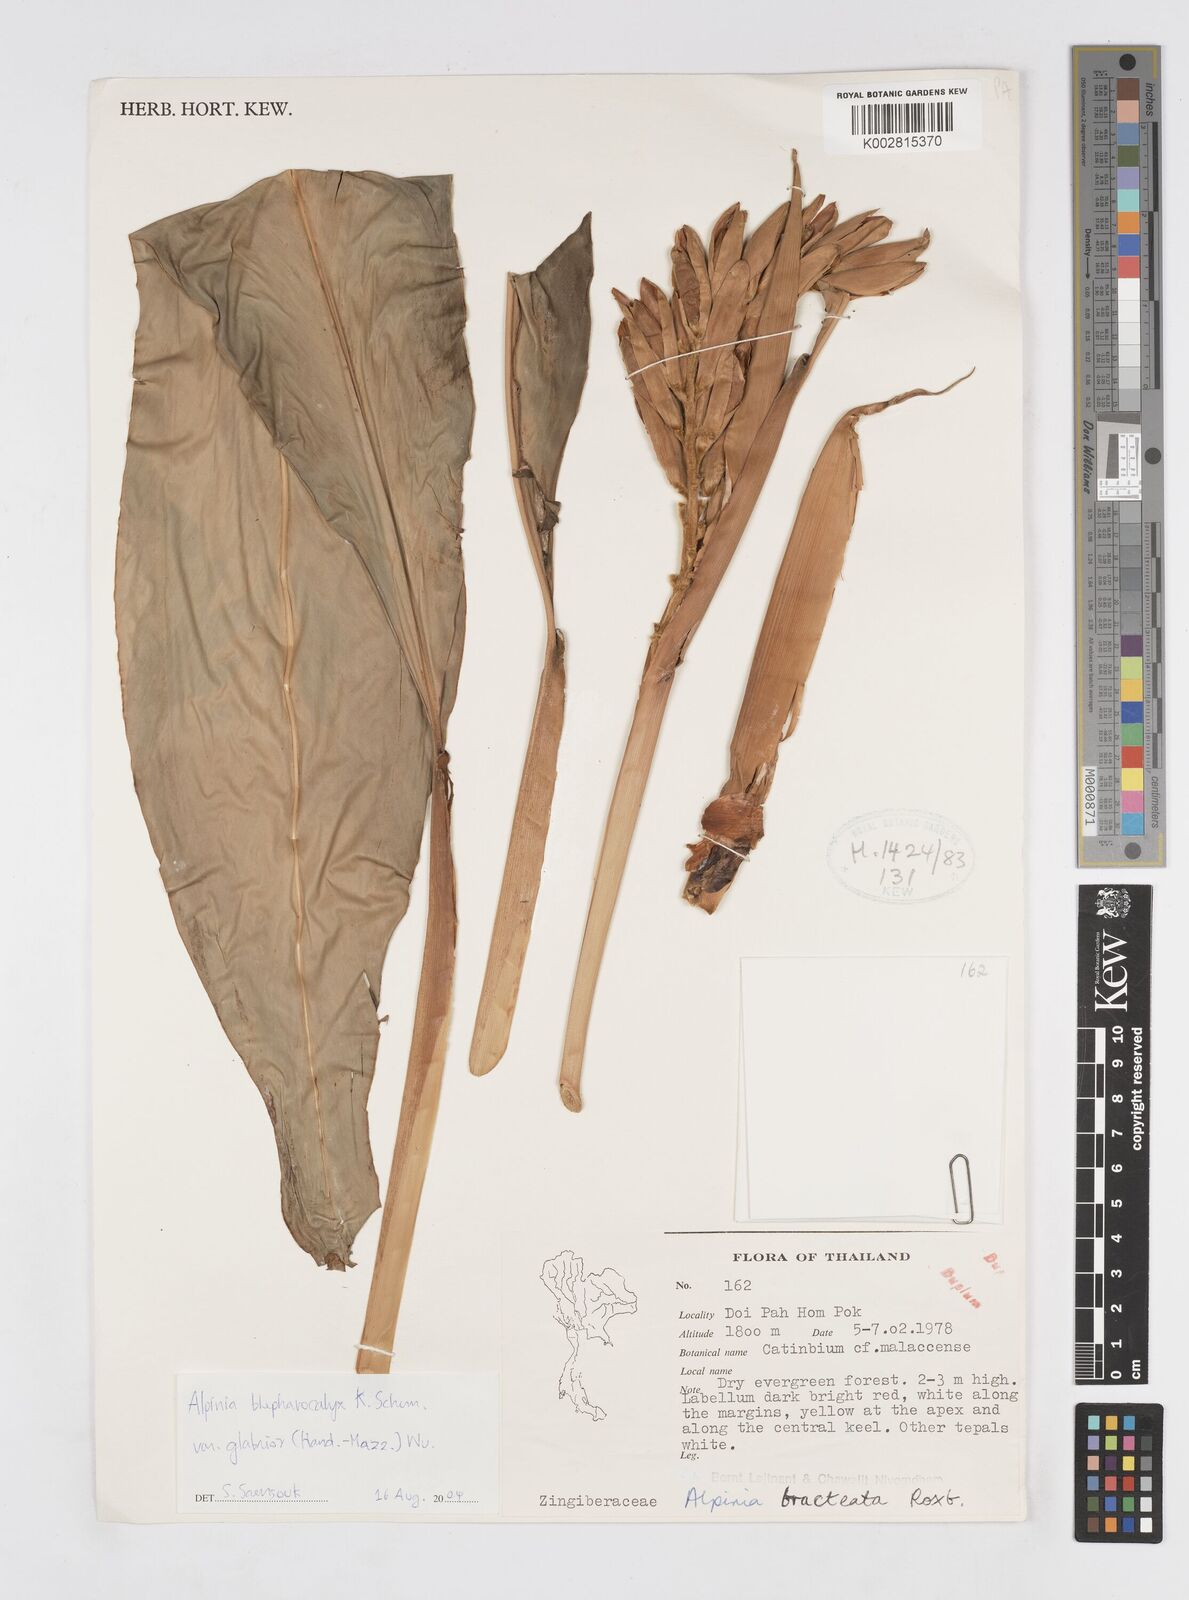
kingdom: Plantae
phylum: Tracheophyta
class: Liliopsida
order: Zingiberales
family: Zingiberaceae
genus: Alpinia
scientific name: Alpinia roxburghii
